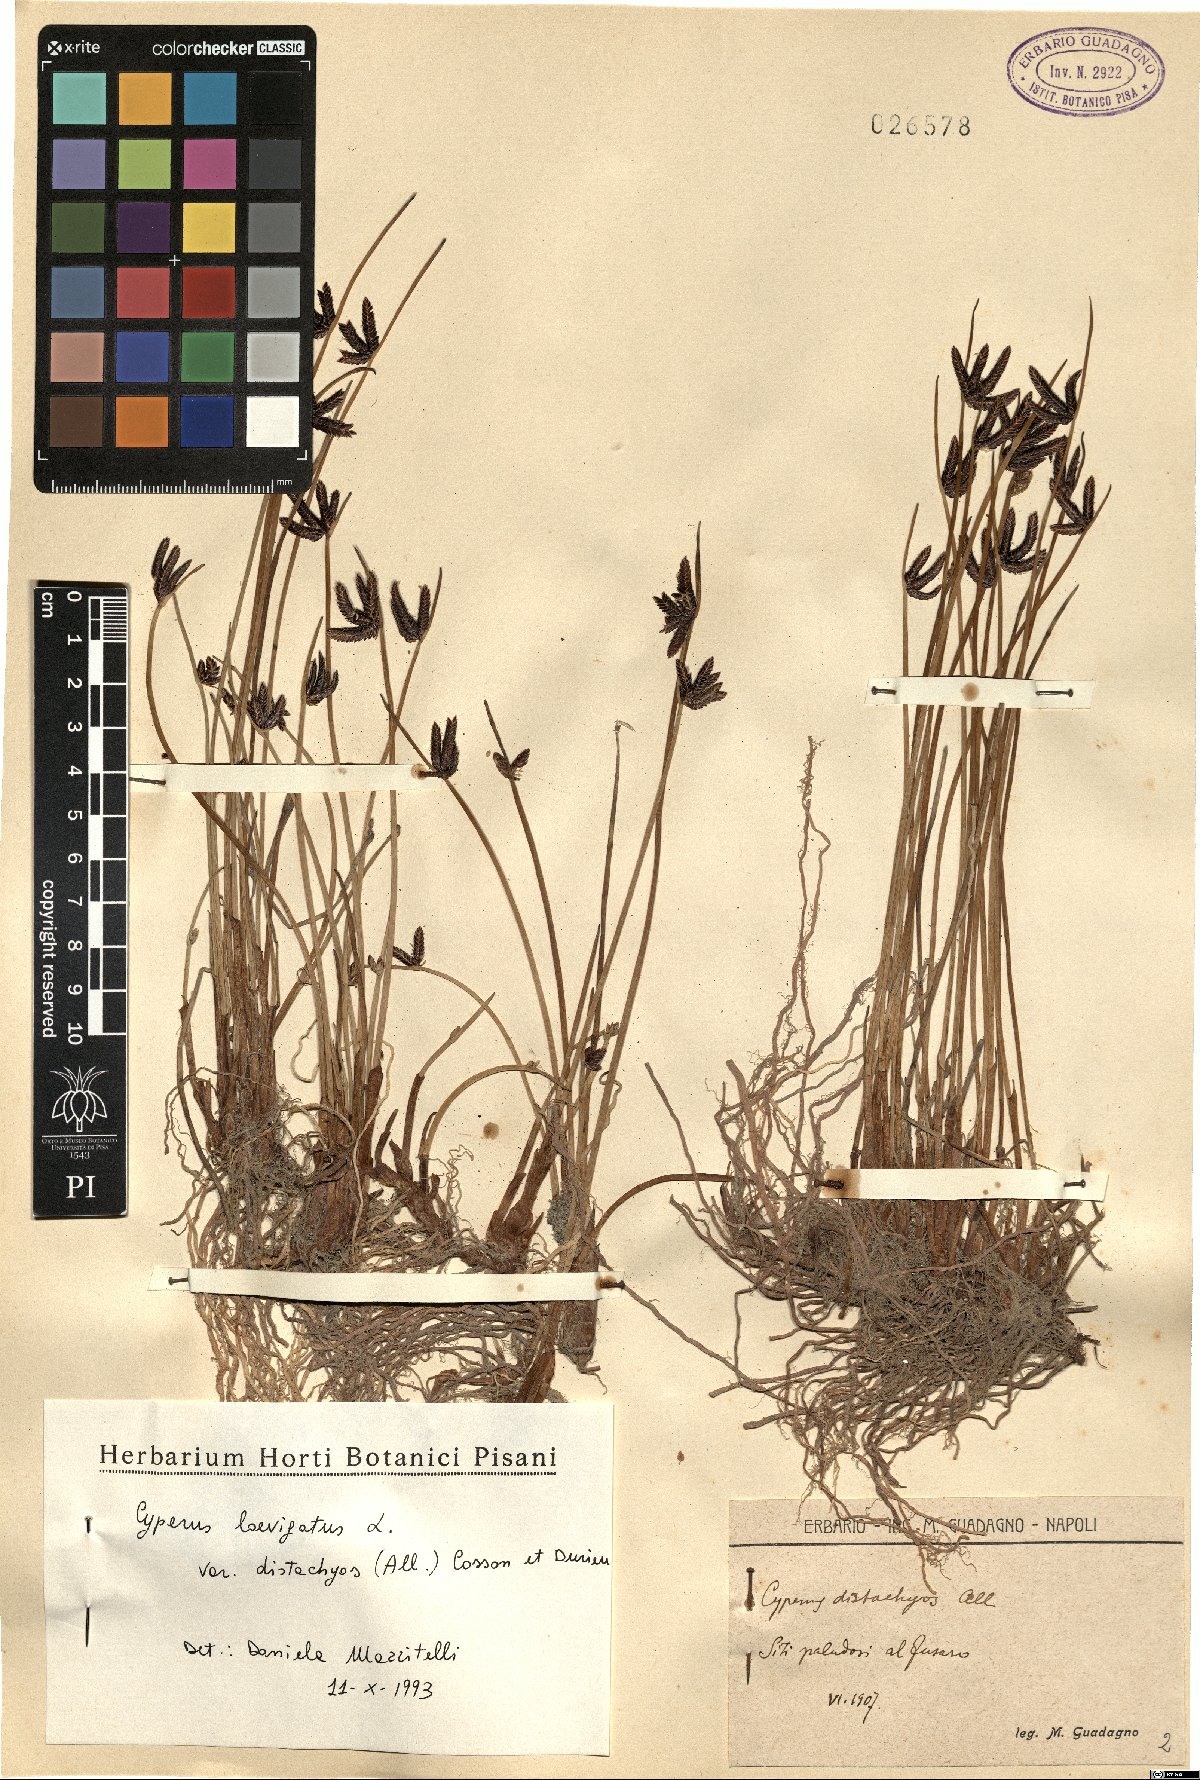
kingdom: Plantae
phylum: Tracheophyta
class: Liliopsida
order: Poales
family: Cyperaceae
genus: Cyperus
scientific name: Cyperus laevigatus
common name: Smooth flat sedge
